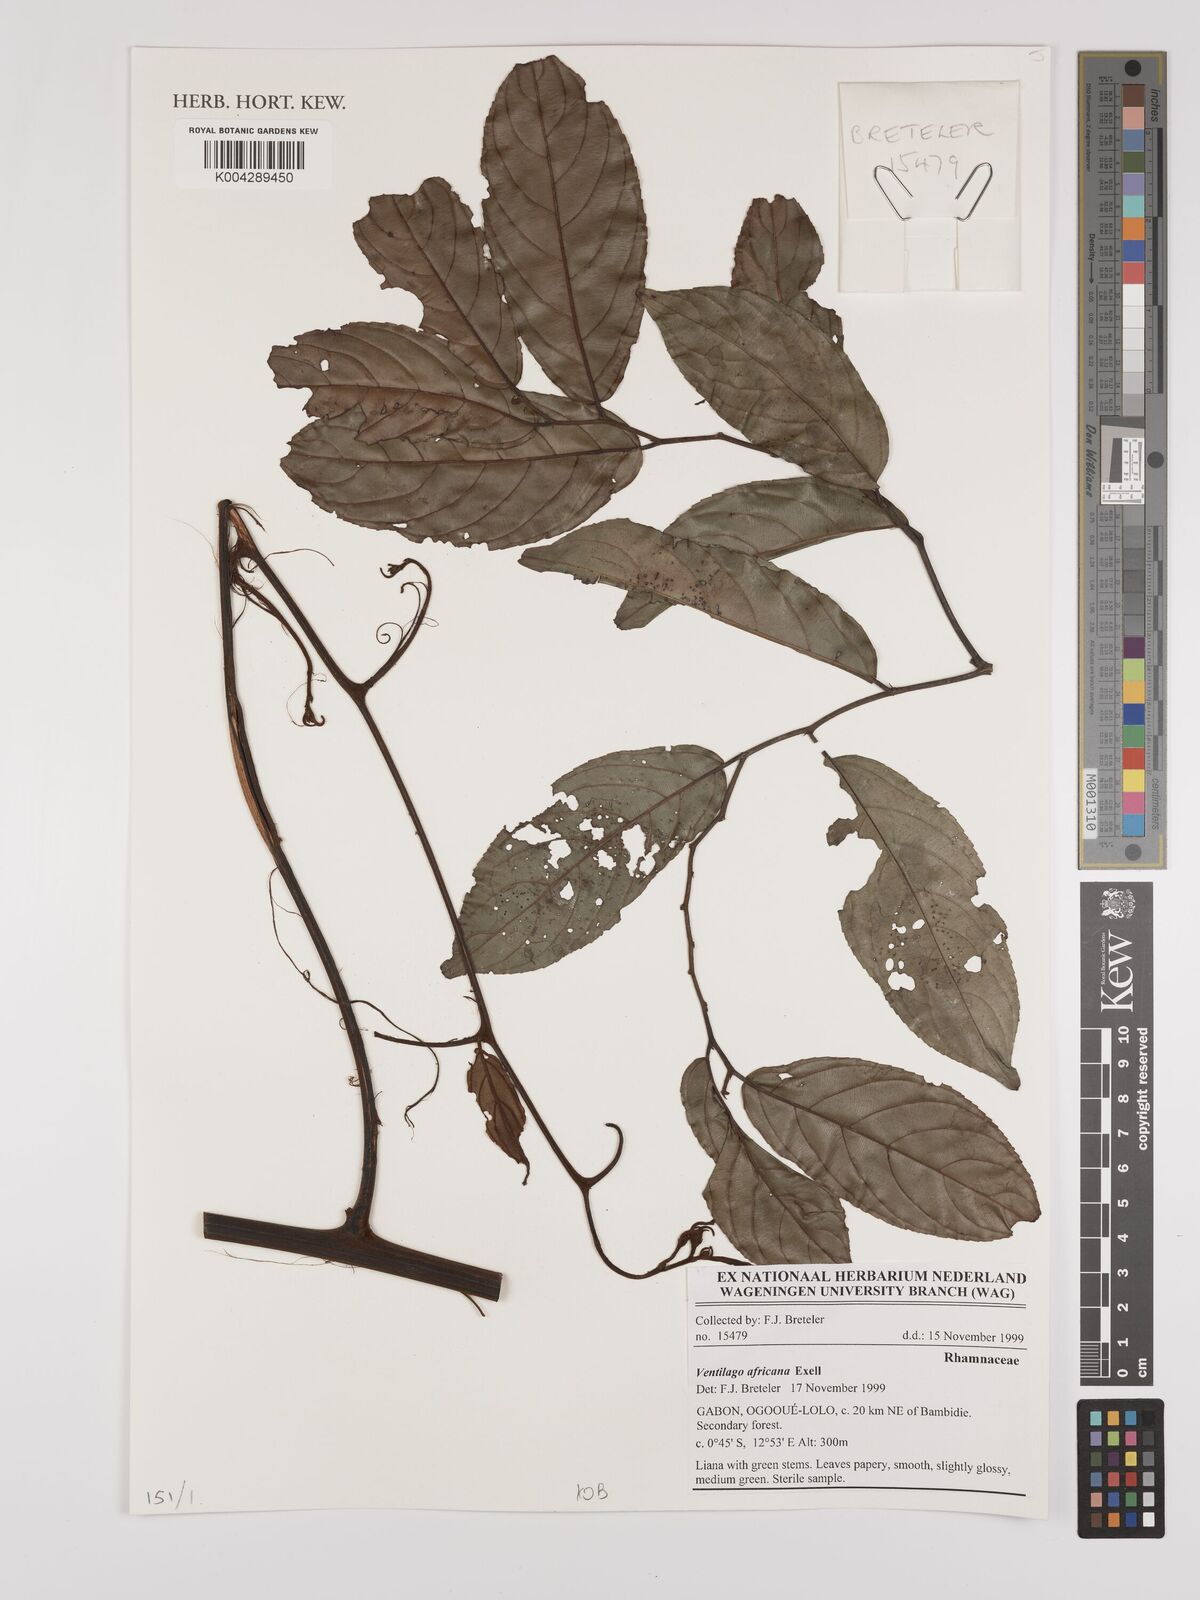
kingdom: Plantae
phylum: Tracheophyta
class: Magnoliopsida
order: Rosales
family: Rhamnaceae
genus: Ventilago
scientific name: Ventilago africana
